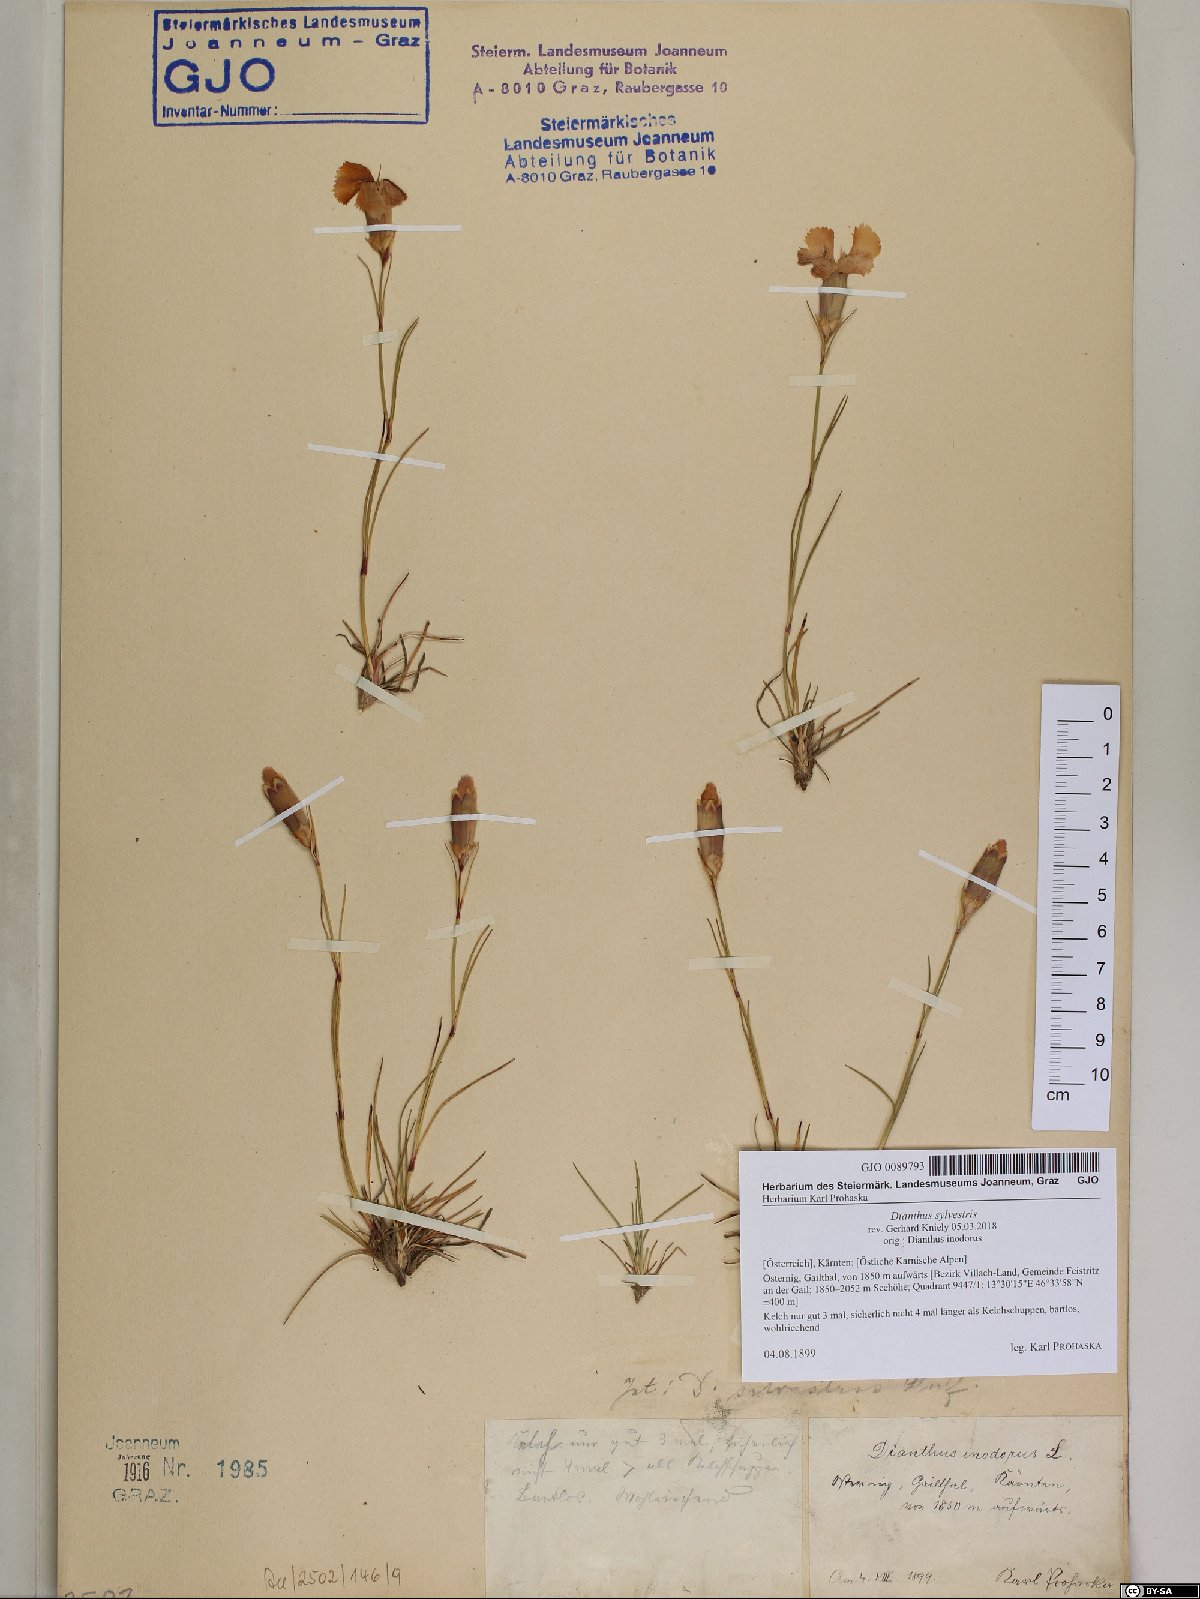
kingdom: Plantae
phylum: Tracheophyta
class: Magnoliopsida
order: Caryophyllales
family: Caryophyllaceae
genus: Dianthus
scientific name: Dianthus sylvestris
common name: Wood pink
